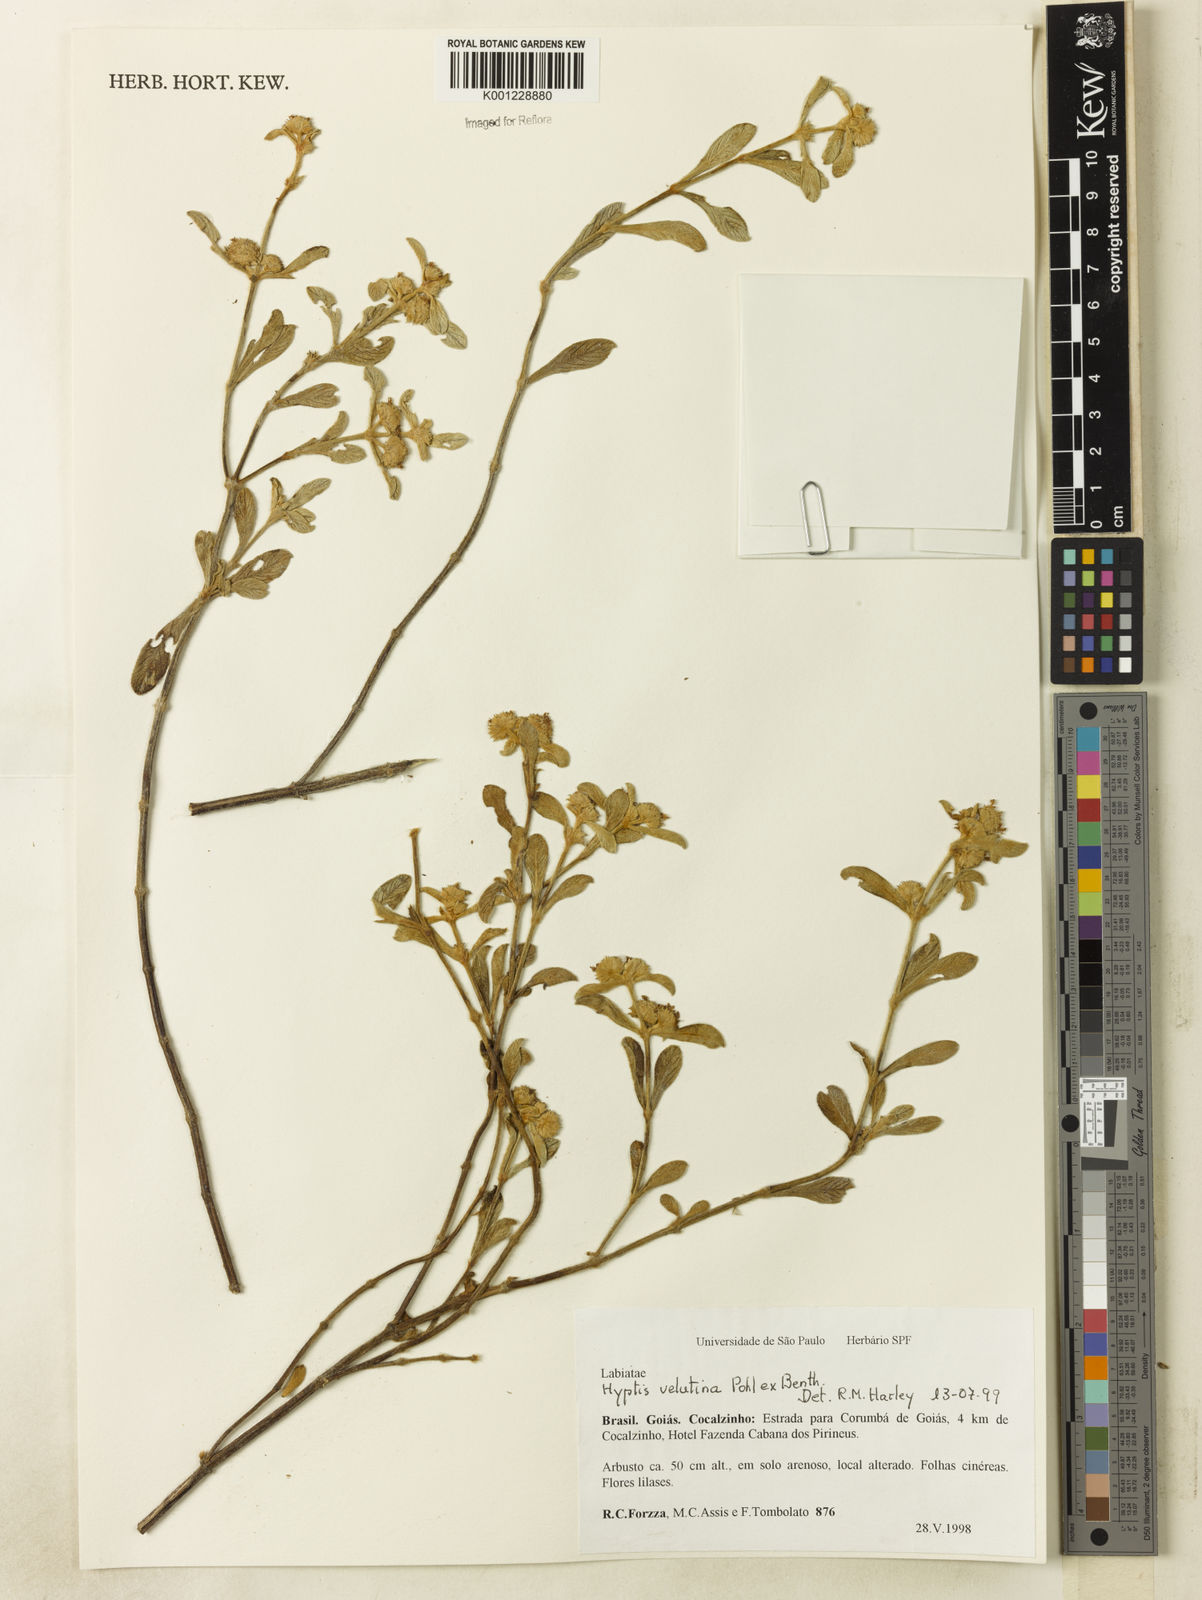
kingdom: Plantae
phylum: Tracheophyta
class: Magnoliopsida
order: Lamiales
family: Lamiaceae
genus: Hyptis
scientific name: Hyptis velutina
